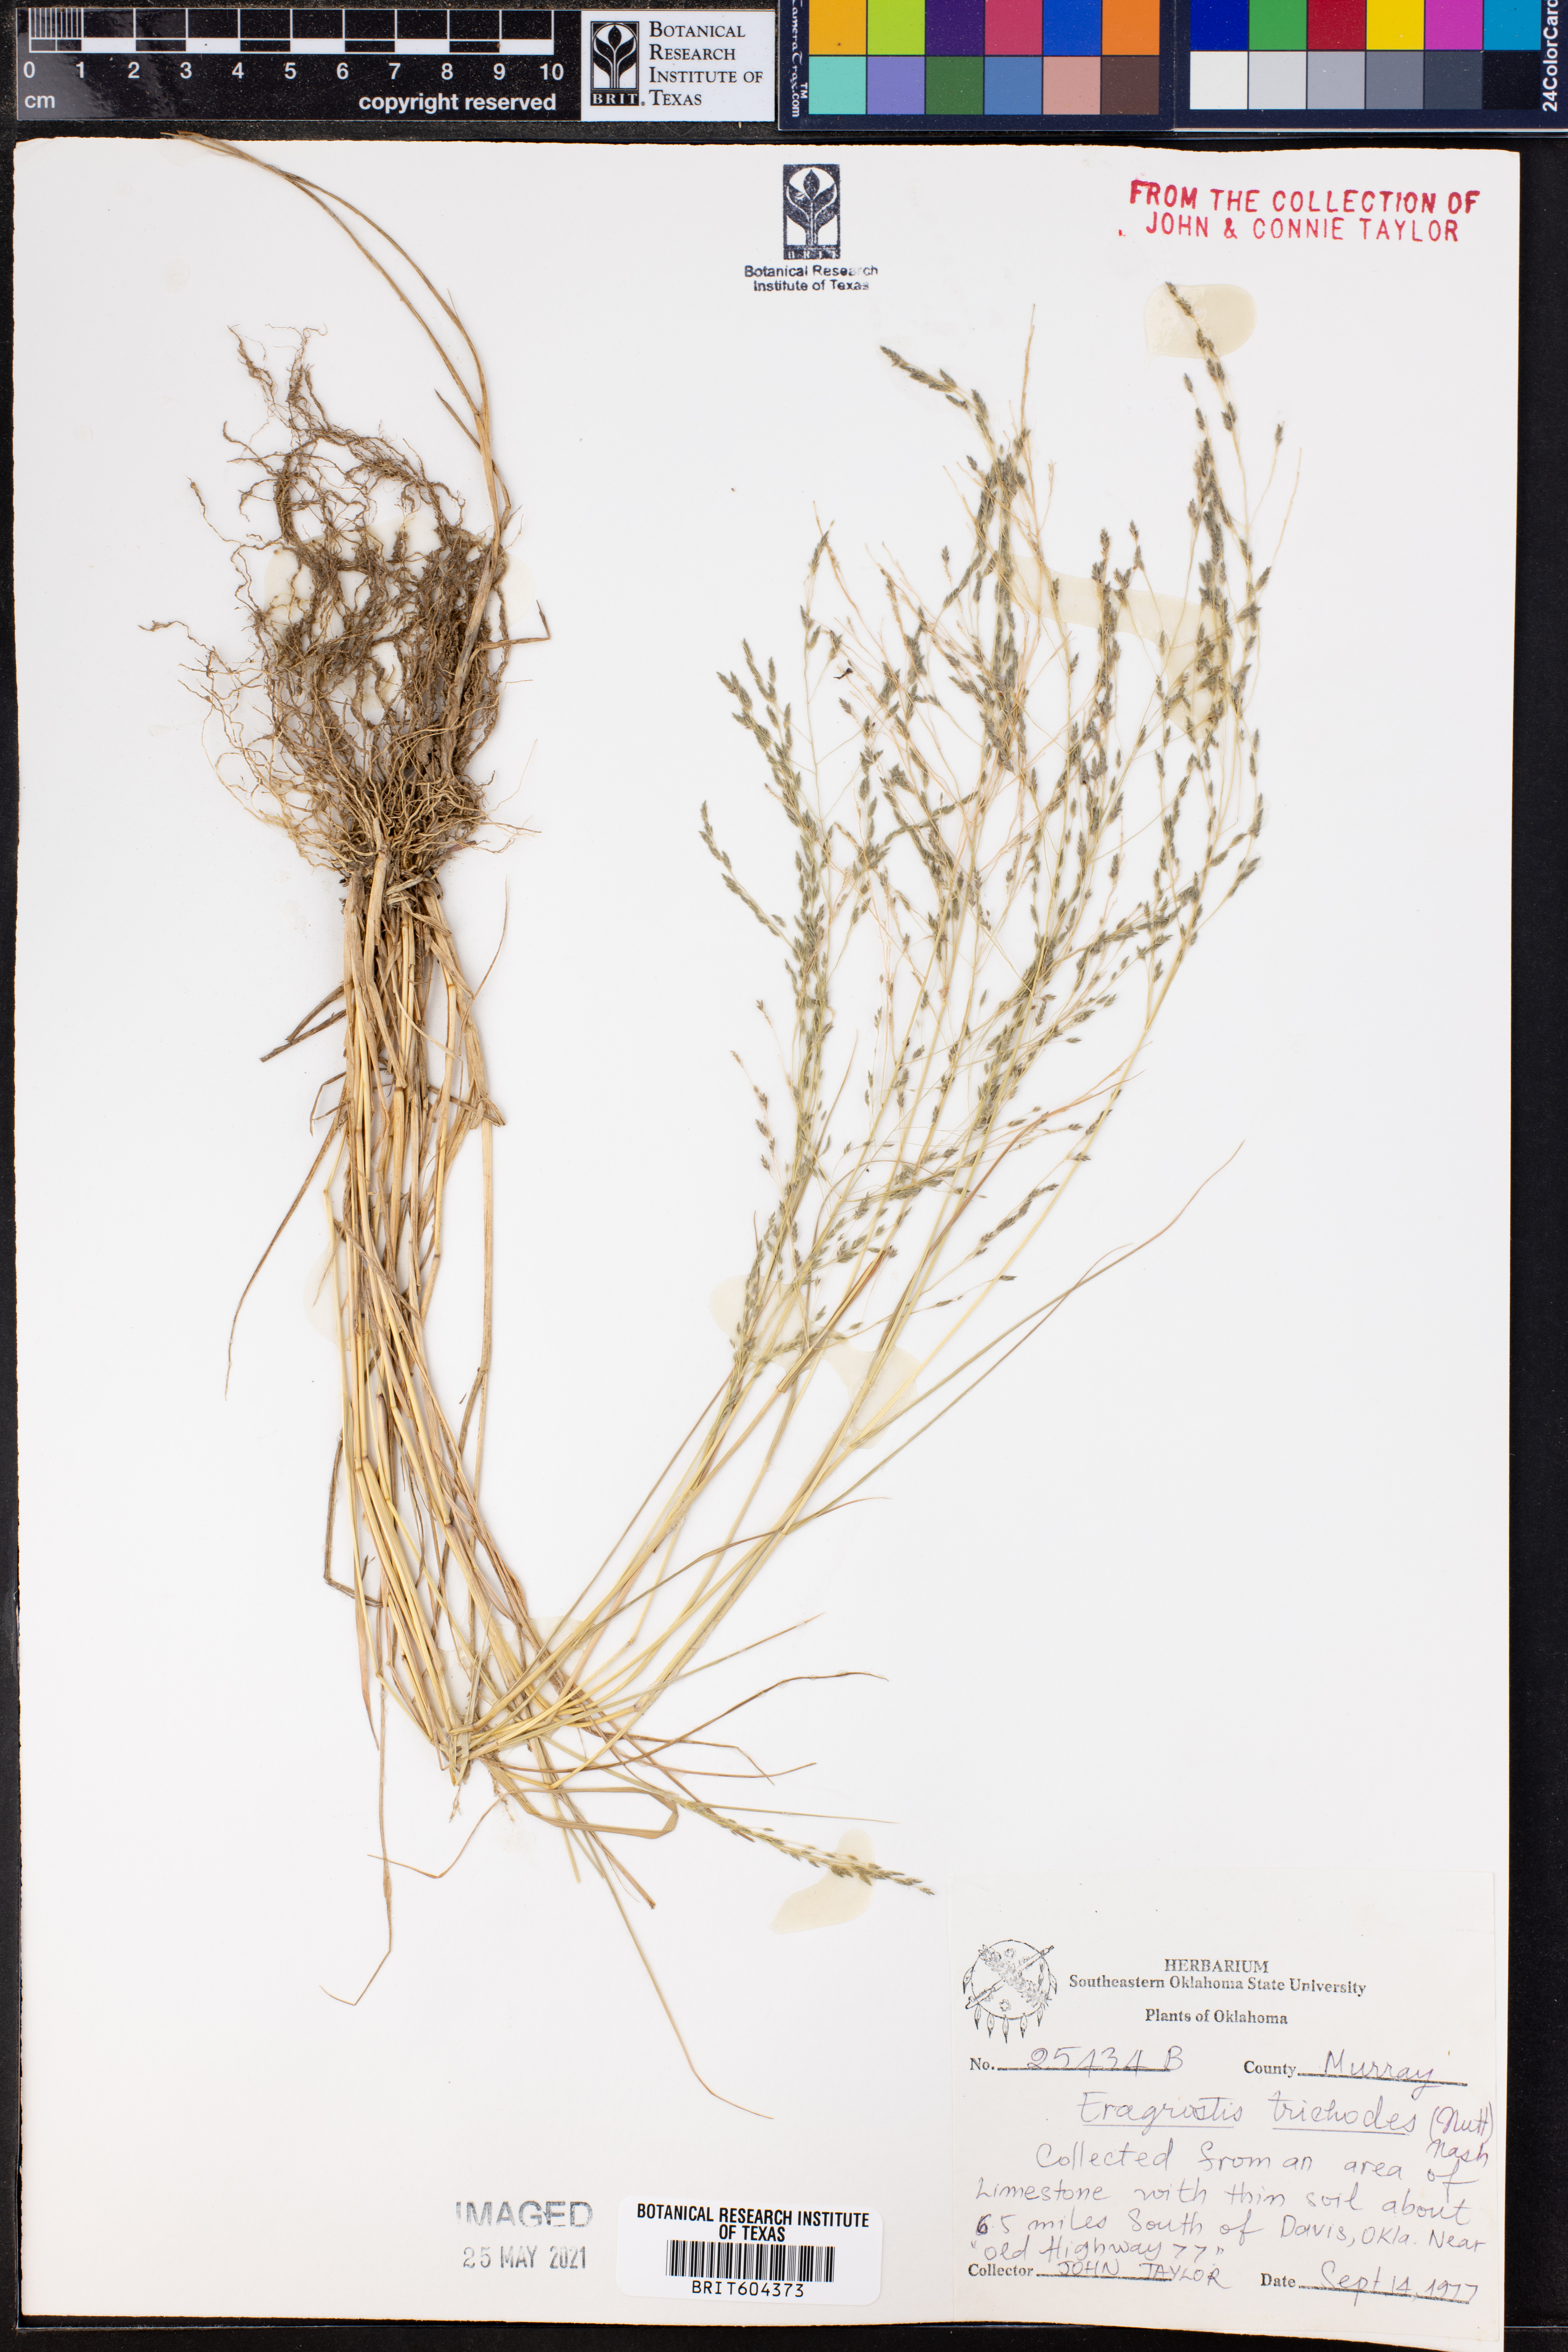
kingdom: Plantae
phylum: Tracheophyta
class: Liliopsida
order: Poales
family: Poaceae
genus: Eragrostis
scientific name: Eragrostis trichodes
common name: Sand love grass
